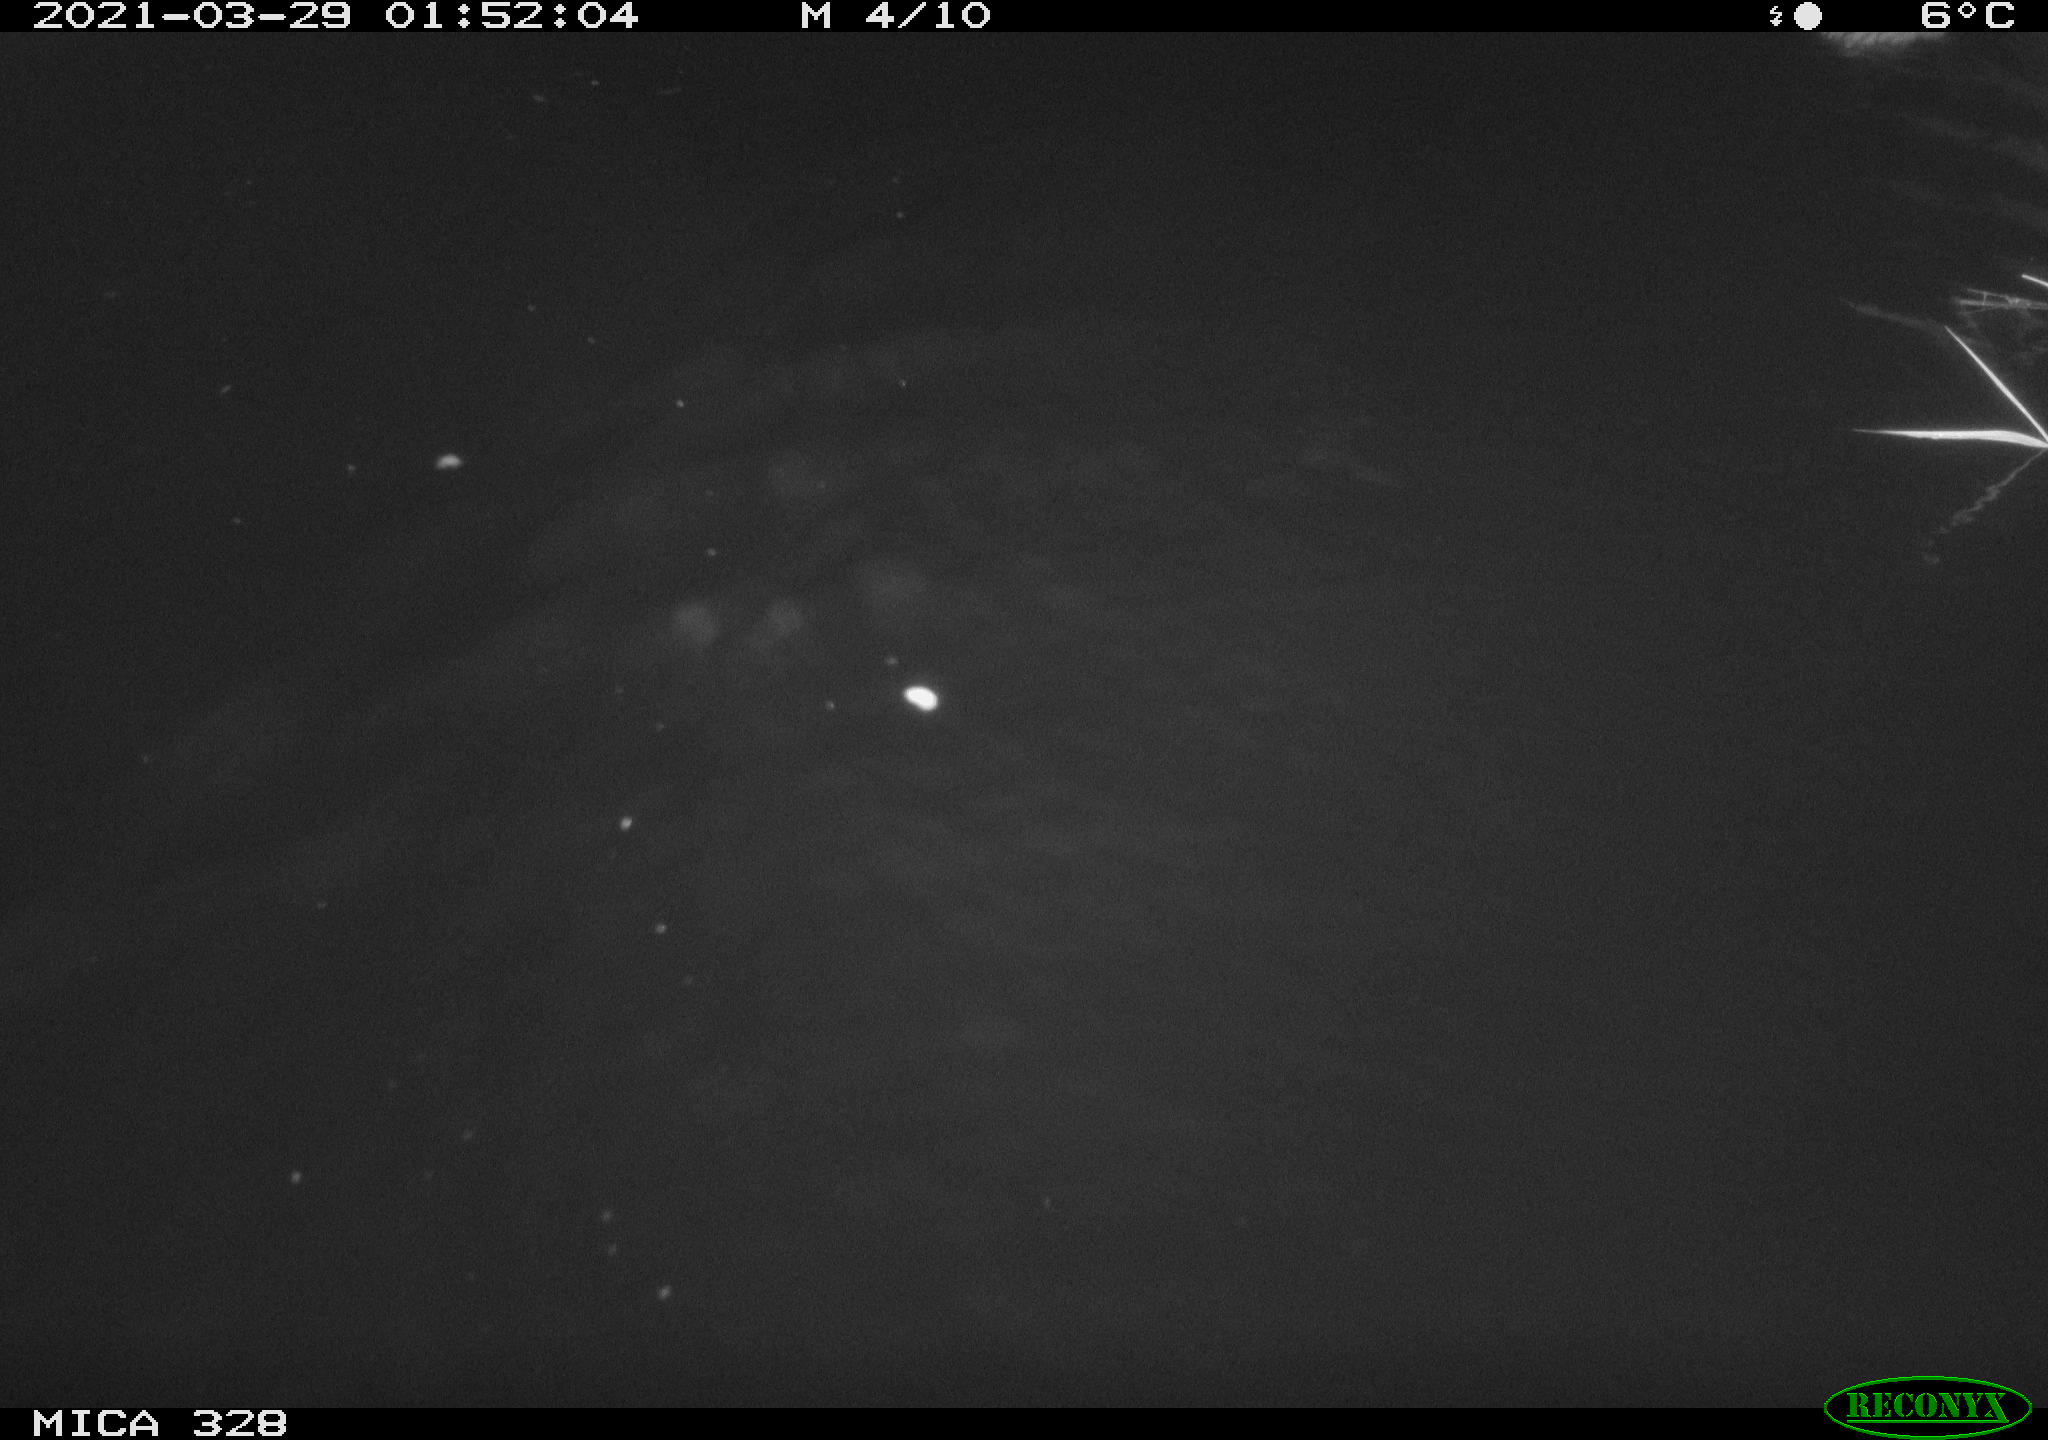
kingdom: Animalia
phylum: Chordata
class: Mammalia
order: Rodentia
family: Cricetidae
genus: Ondatra
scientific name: Ondatra zibethicus
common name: Muskrat
